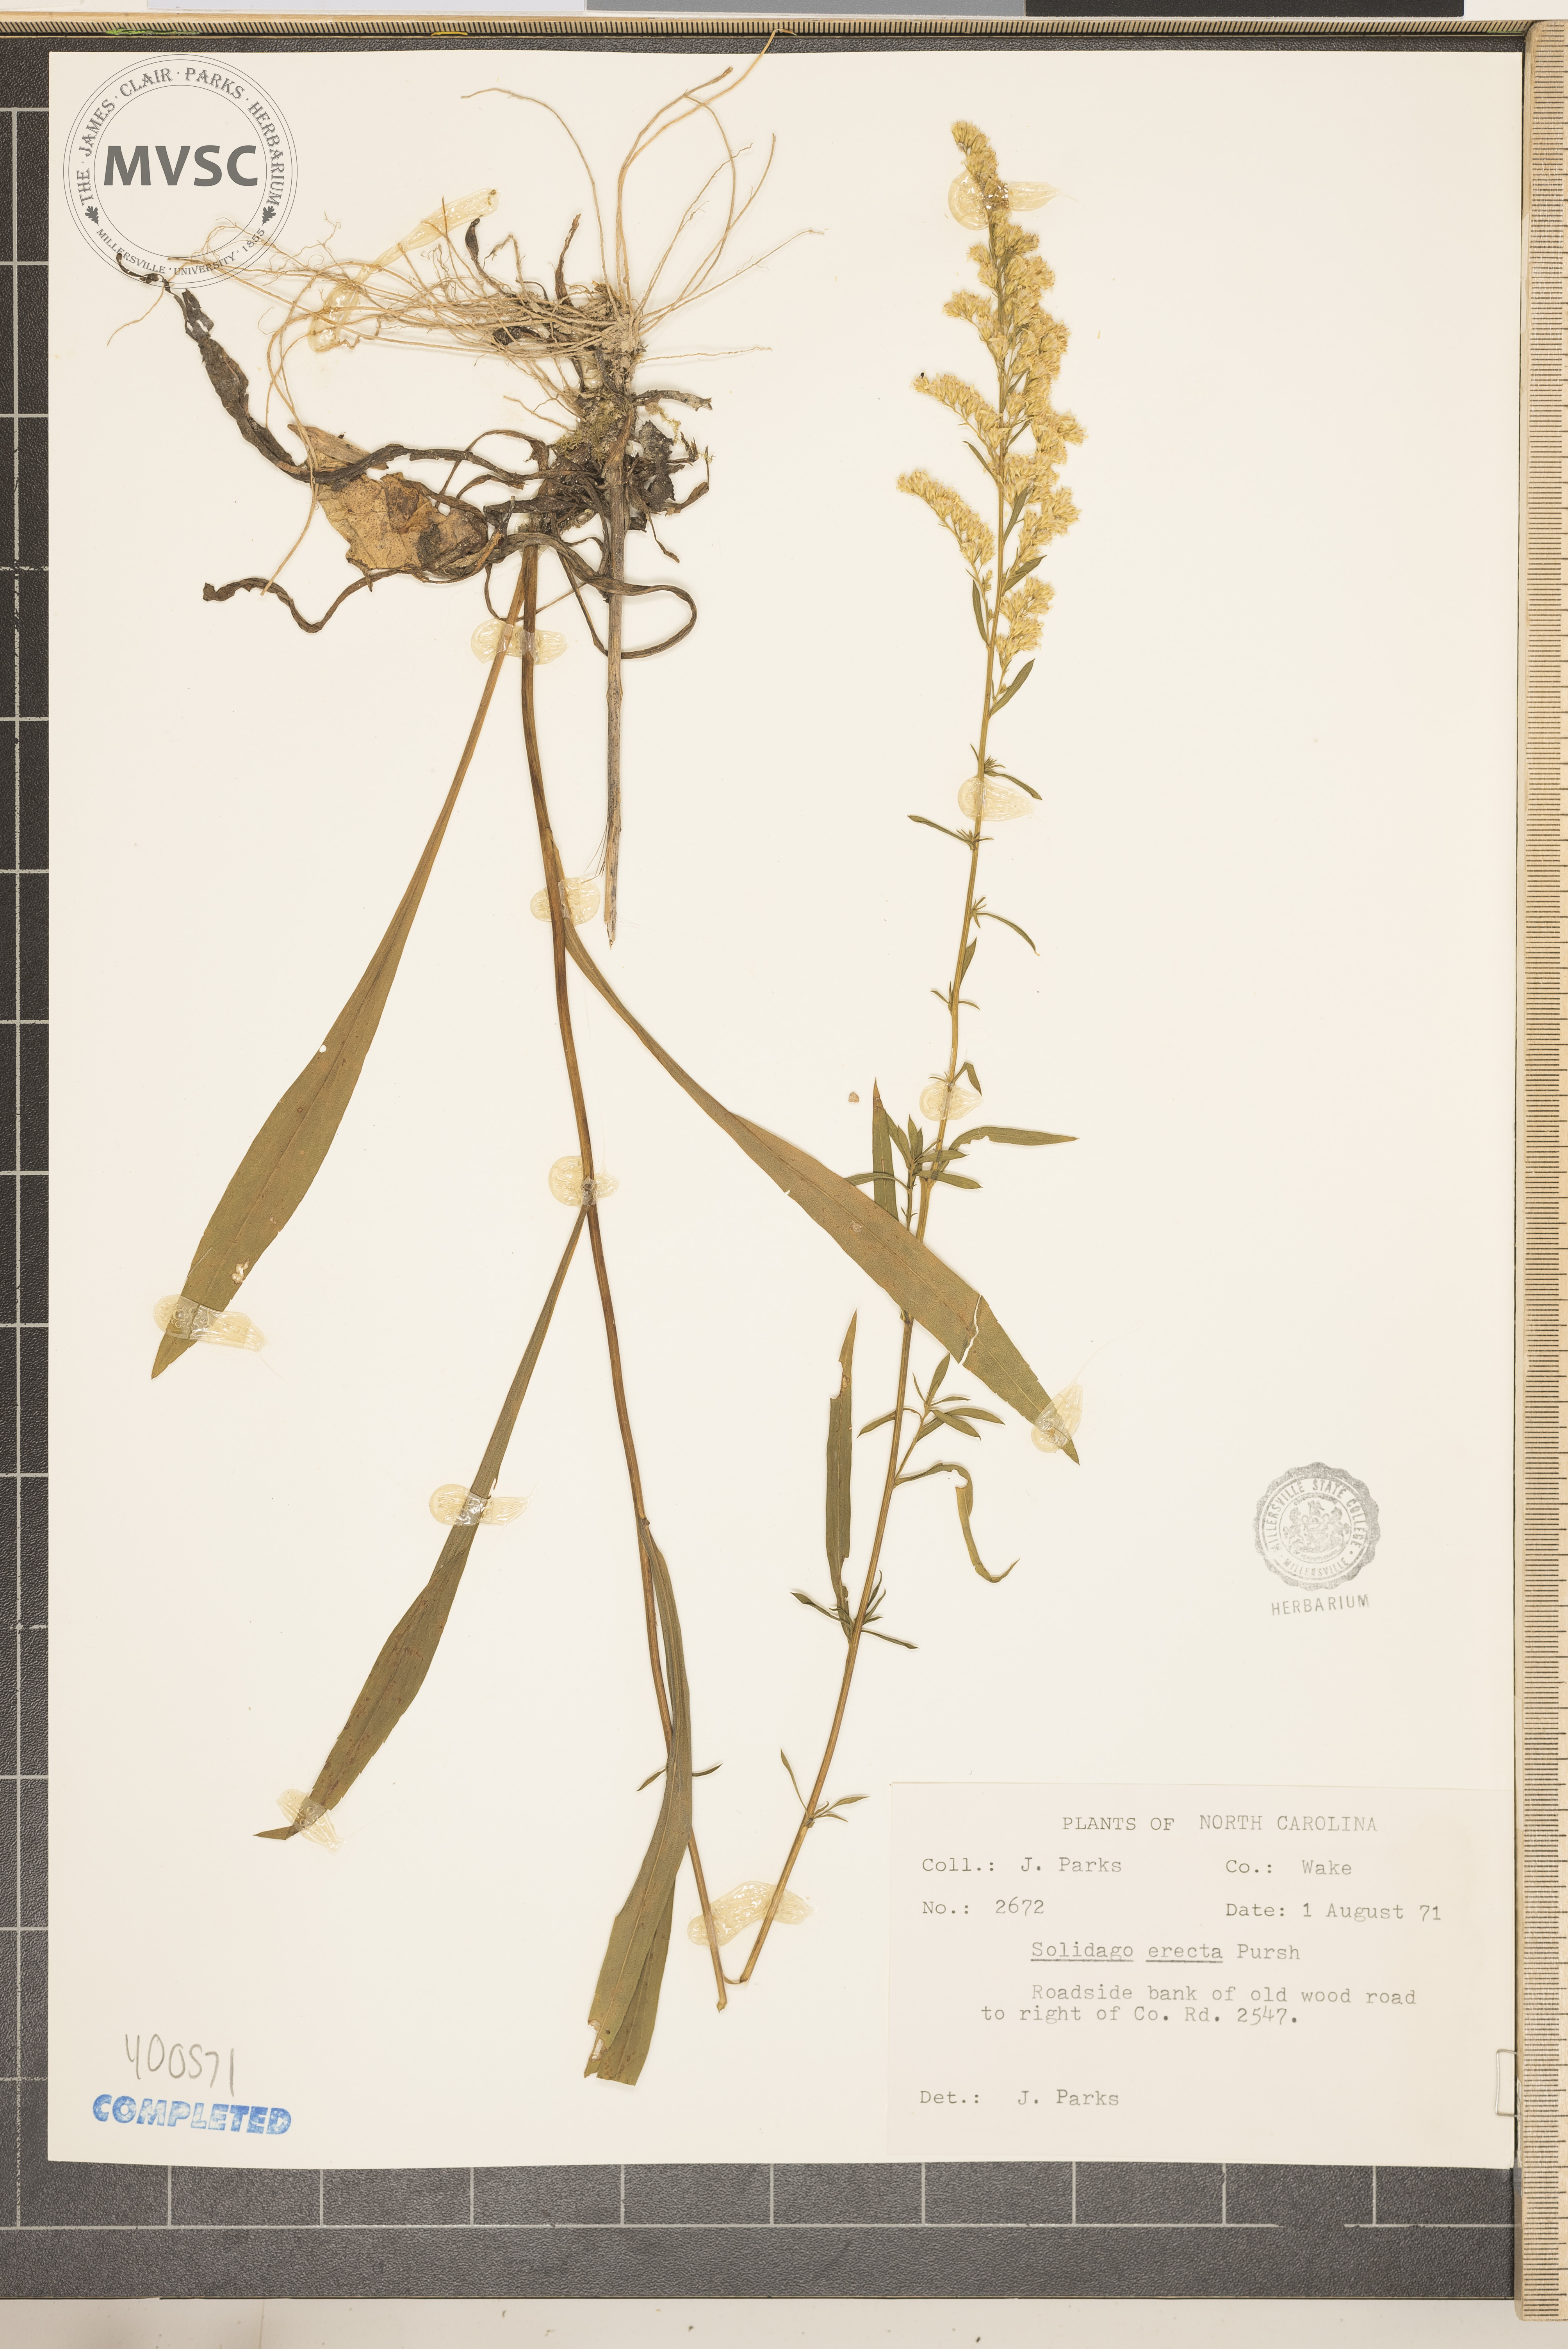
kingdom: Plantae
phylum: Tracheophyta
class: Magnoliopsida
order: Asterales
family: Asteraceae
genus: Solidago
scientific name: Solidago juncea
